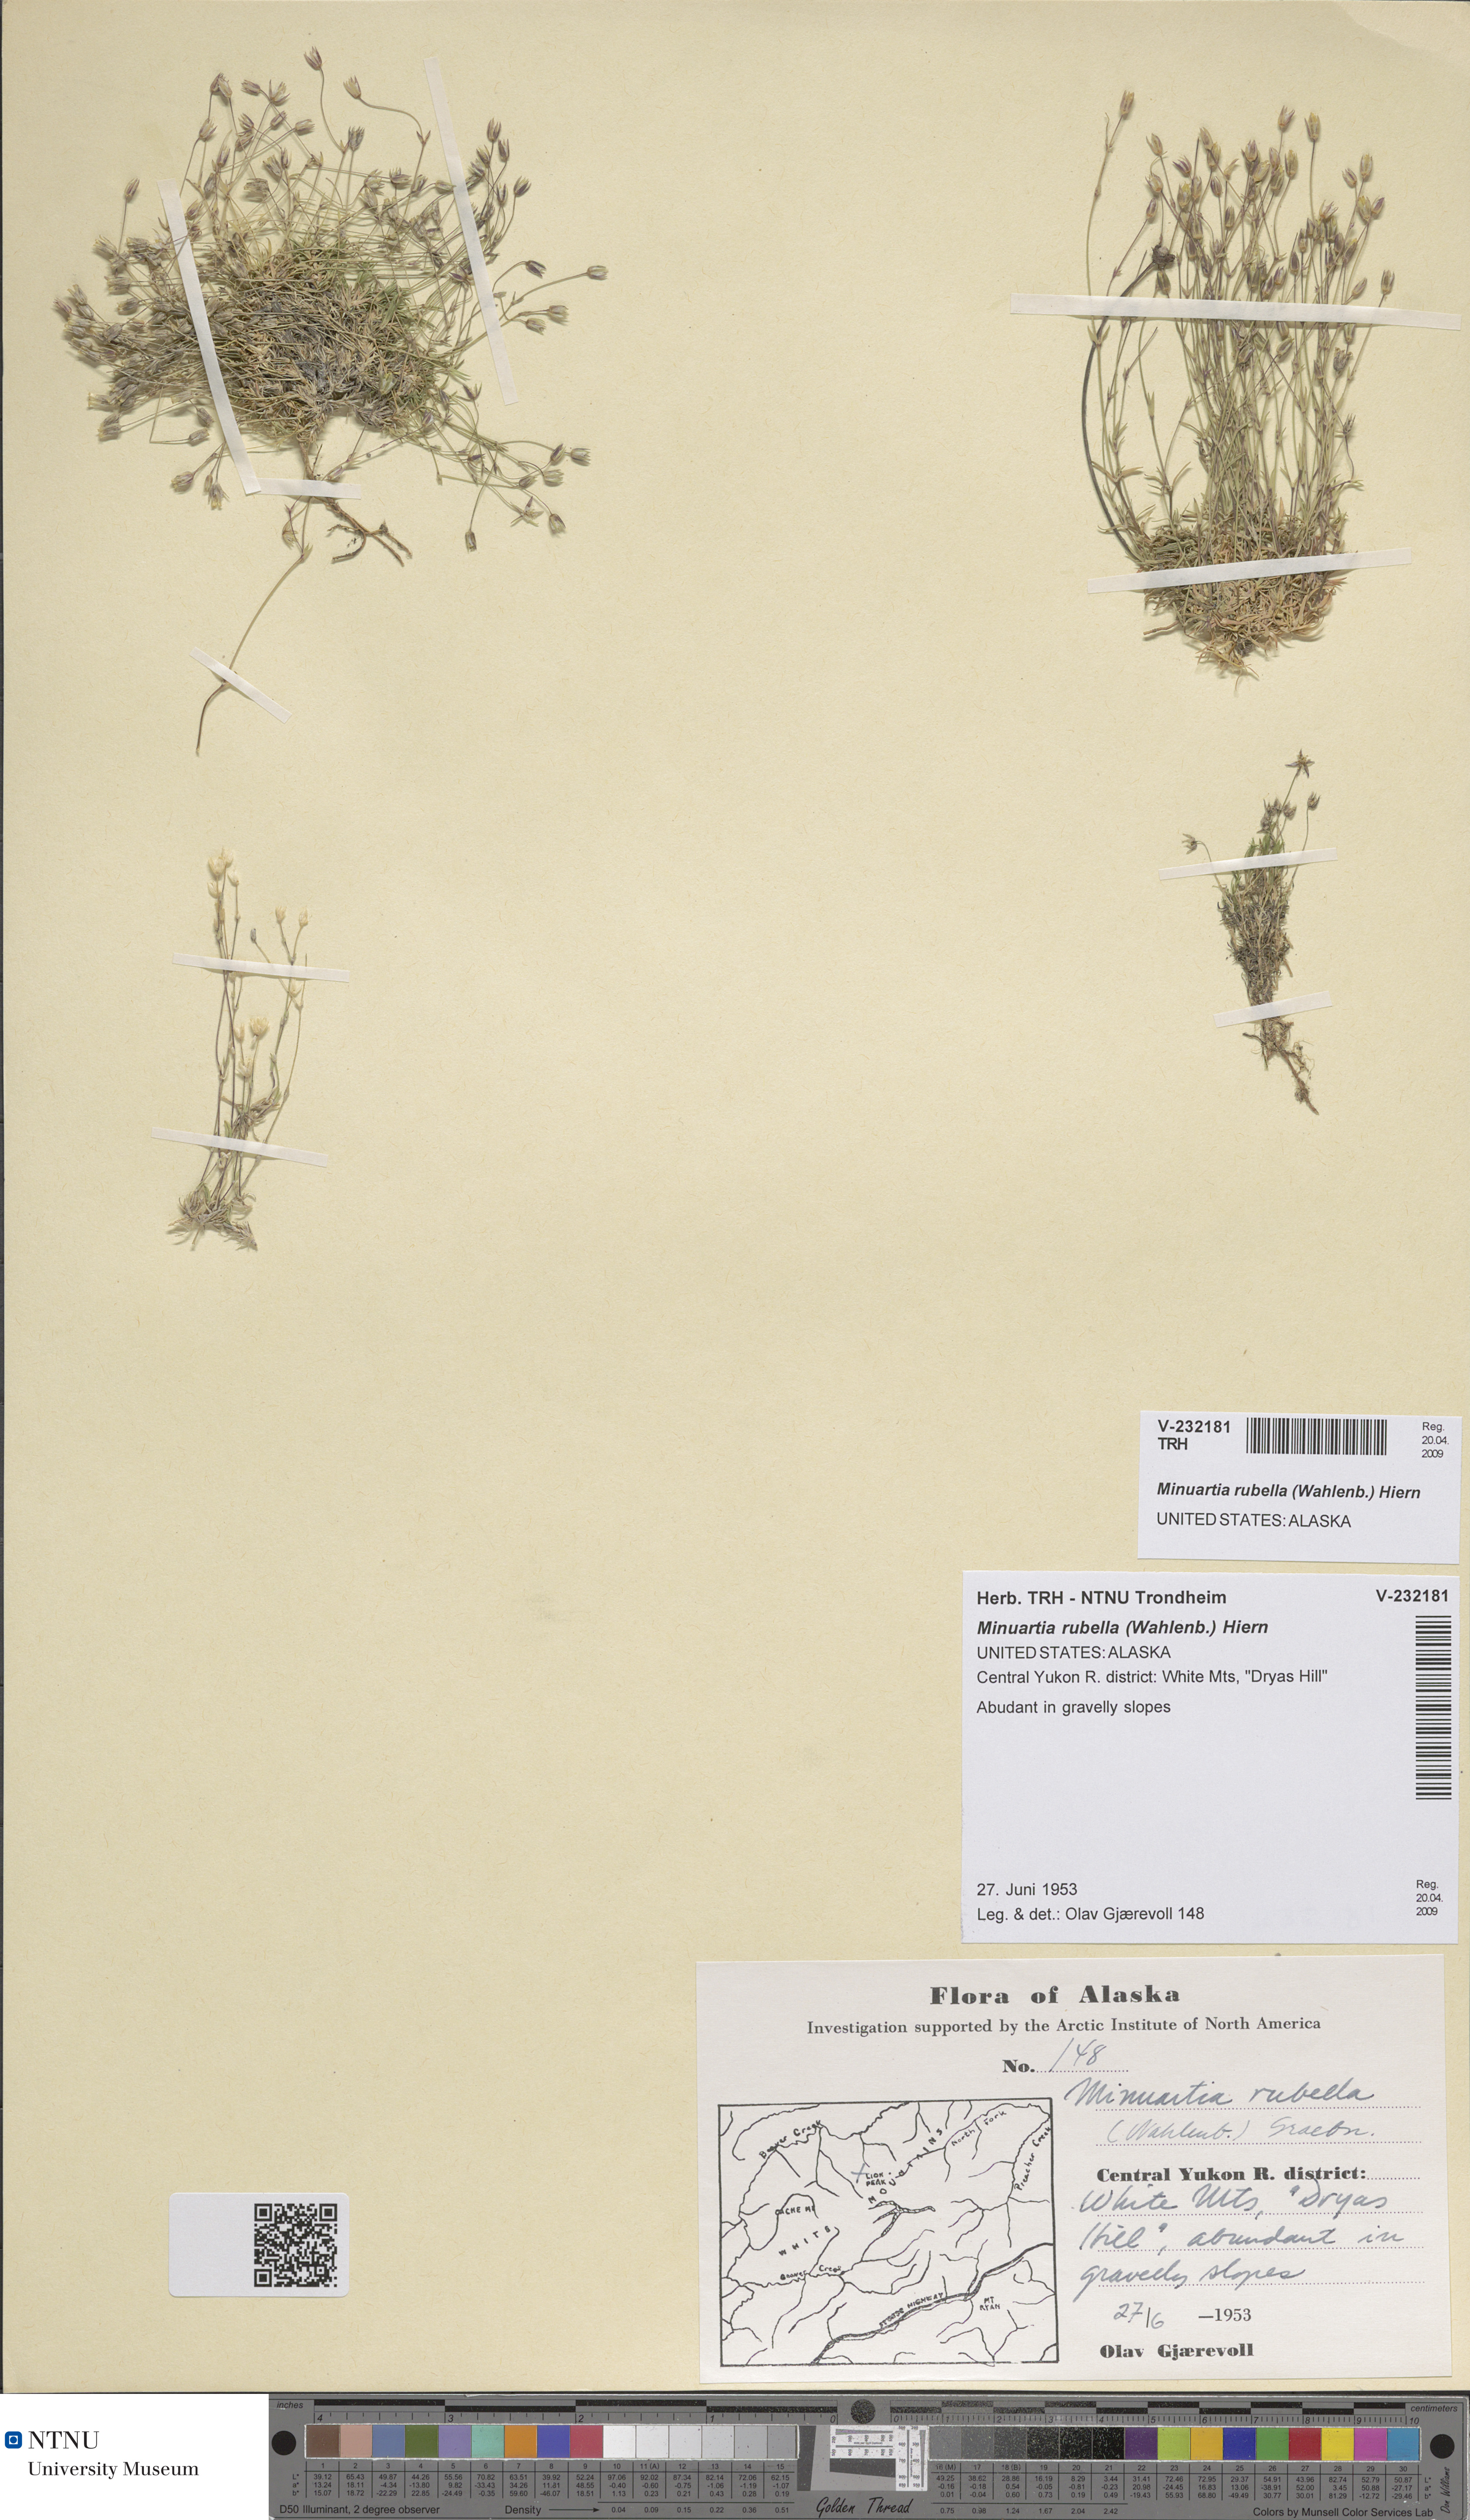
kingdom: Plantae
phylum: Tracheophyta
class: Magnoliopsida
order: Caryophyllales
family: Caryophyllaceae
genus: Sabulina
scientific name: Sabulina rubella
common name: Beautiful sandwort
